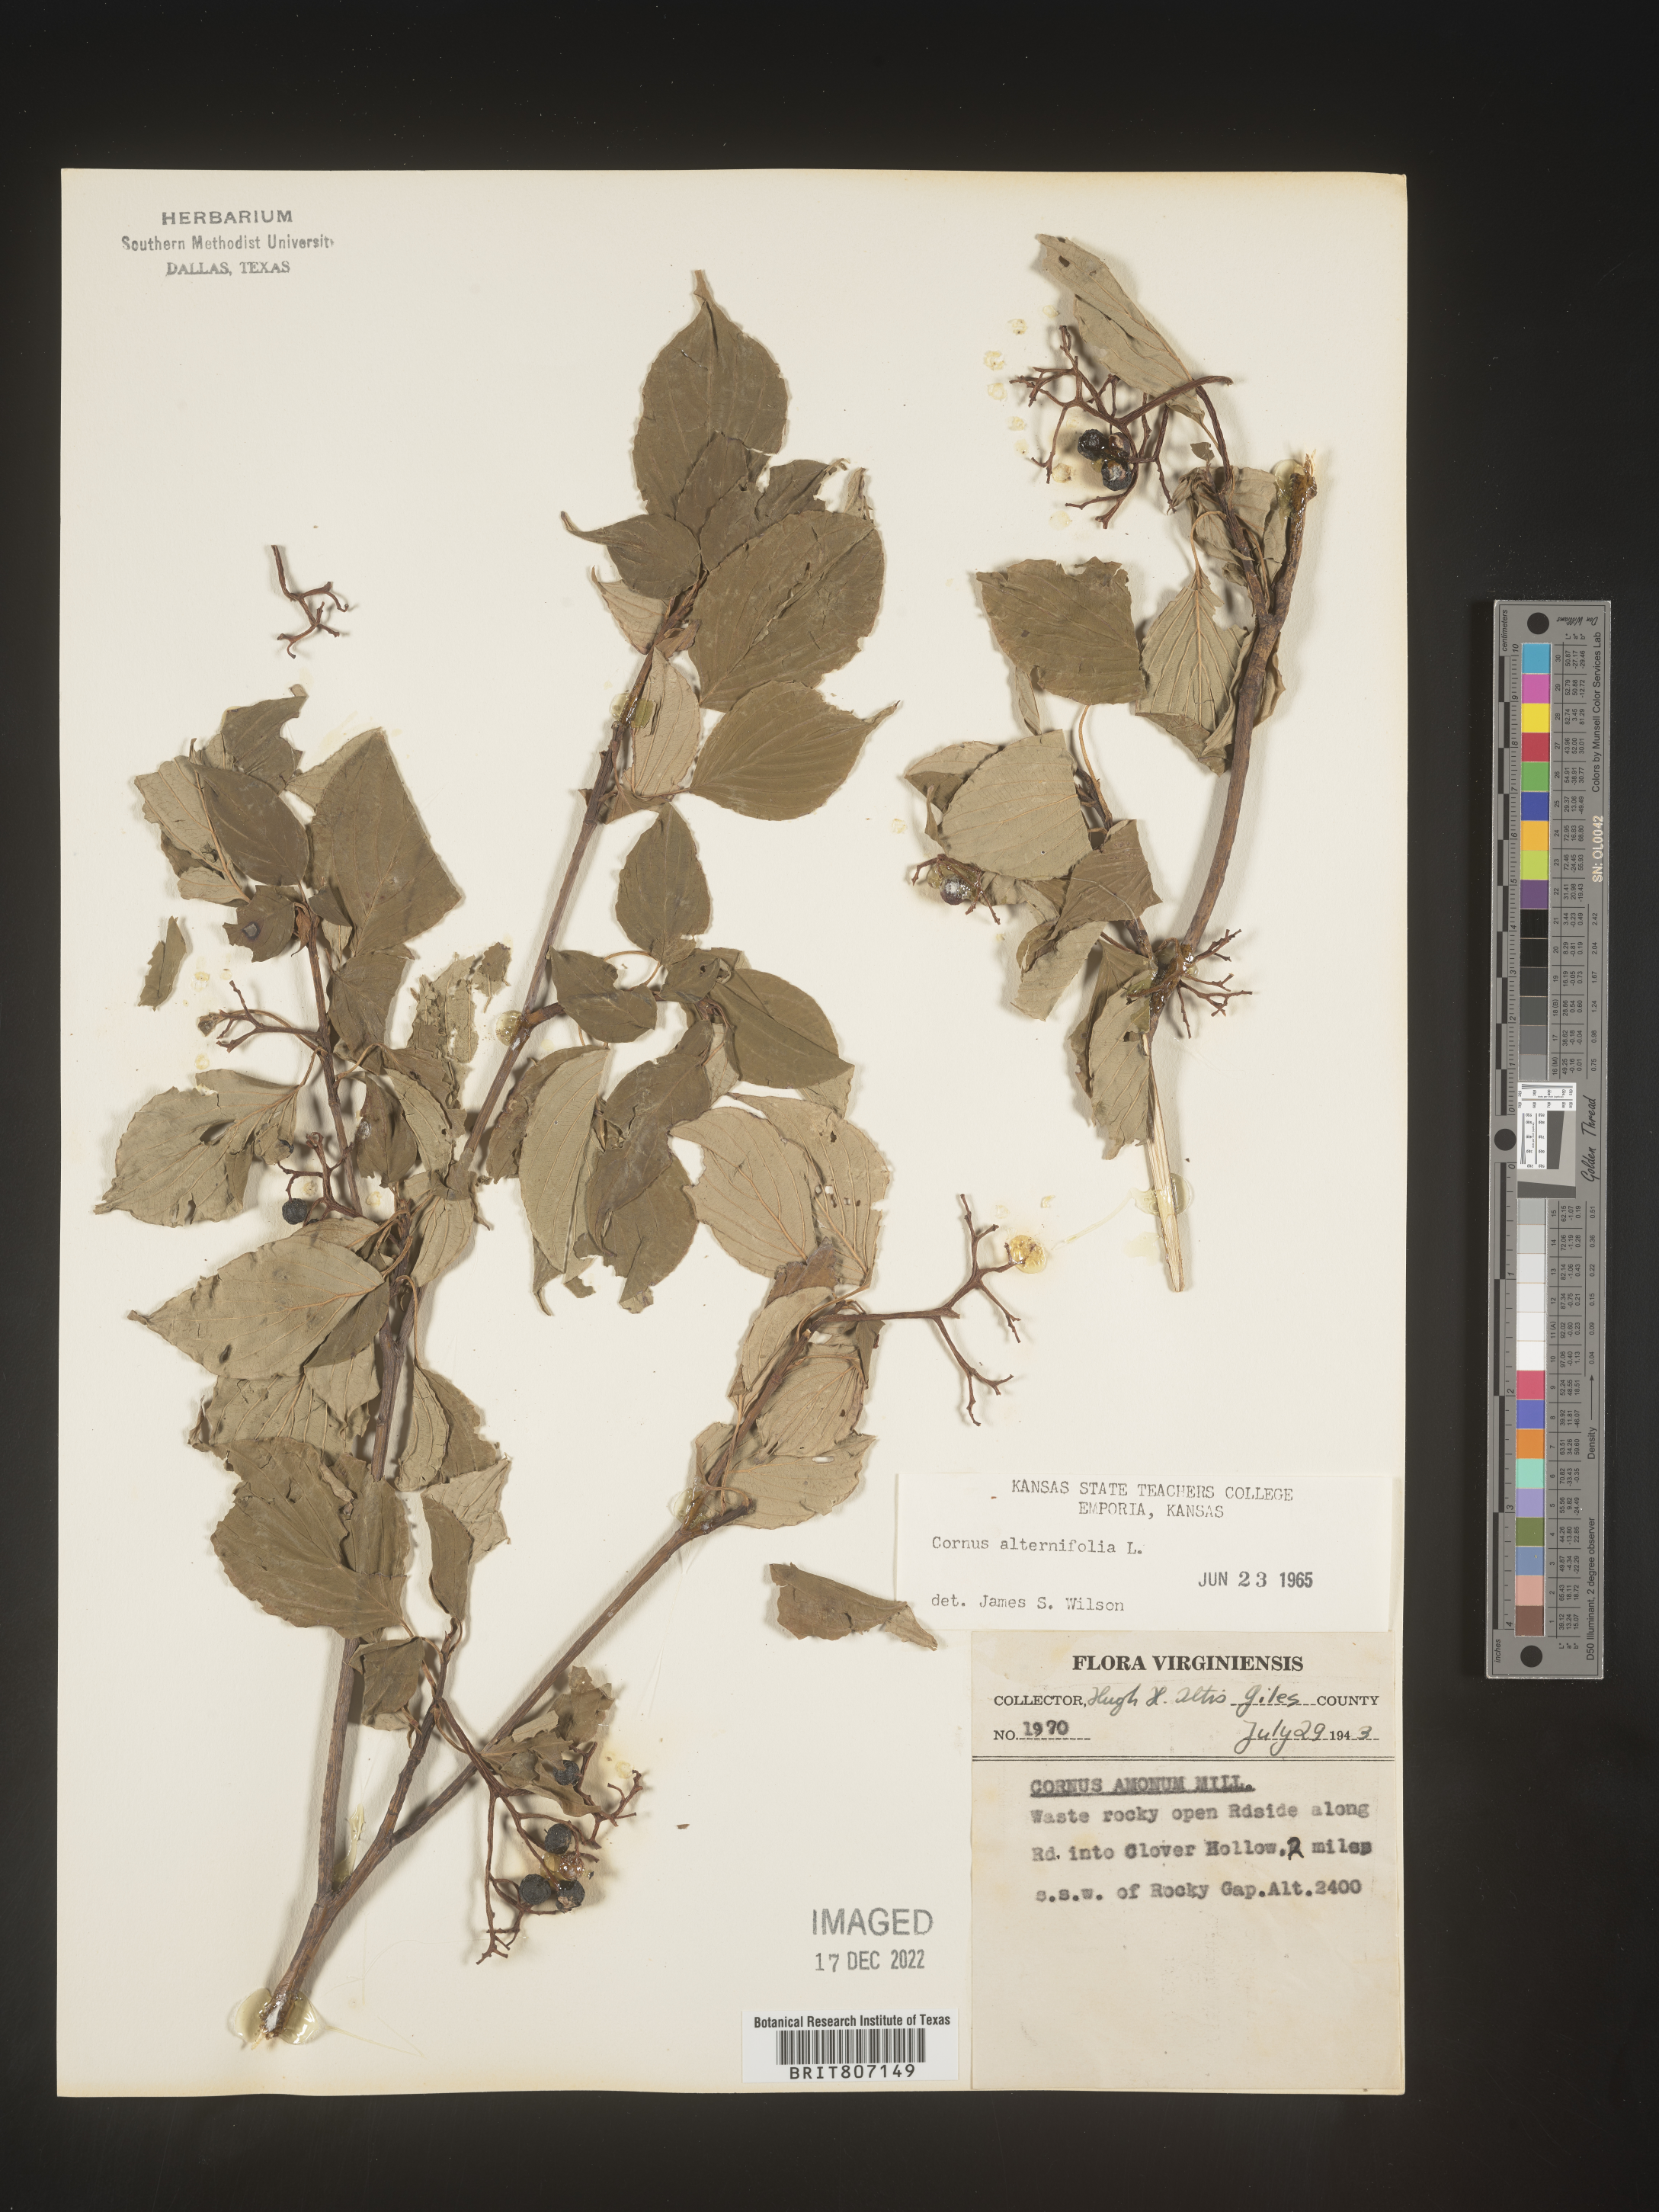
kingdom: Plantae
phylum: Tracheophyta
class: Magnoliopsida
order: Cornales
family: Cornaceae
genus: Cornus
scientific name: Cornus alternifolia
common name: Pagoda dogwood
